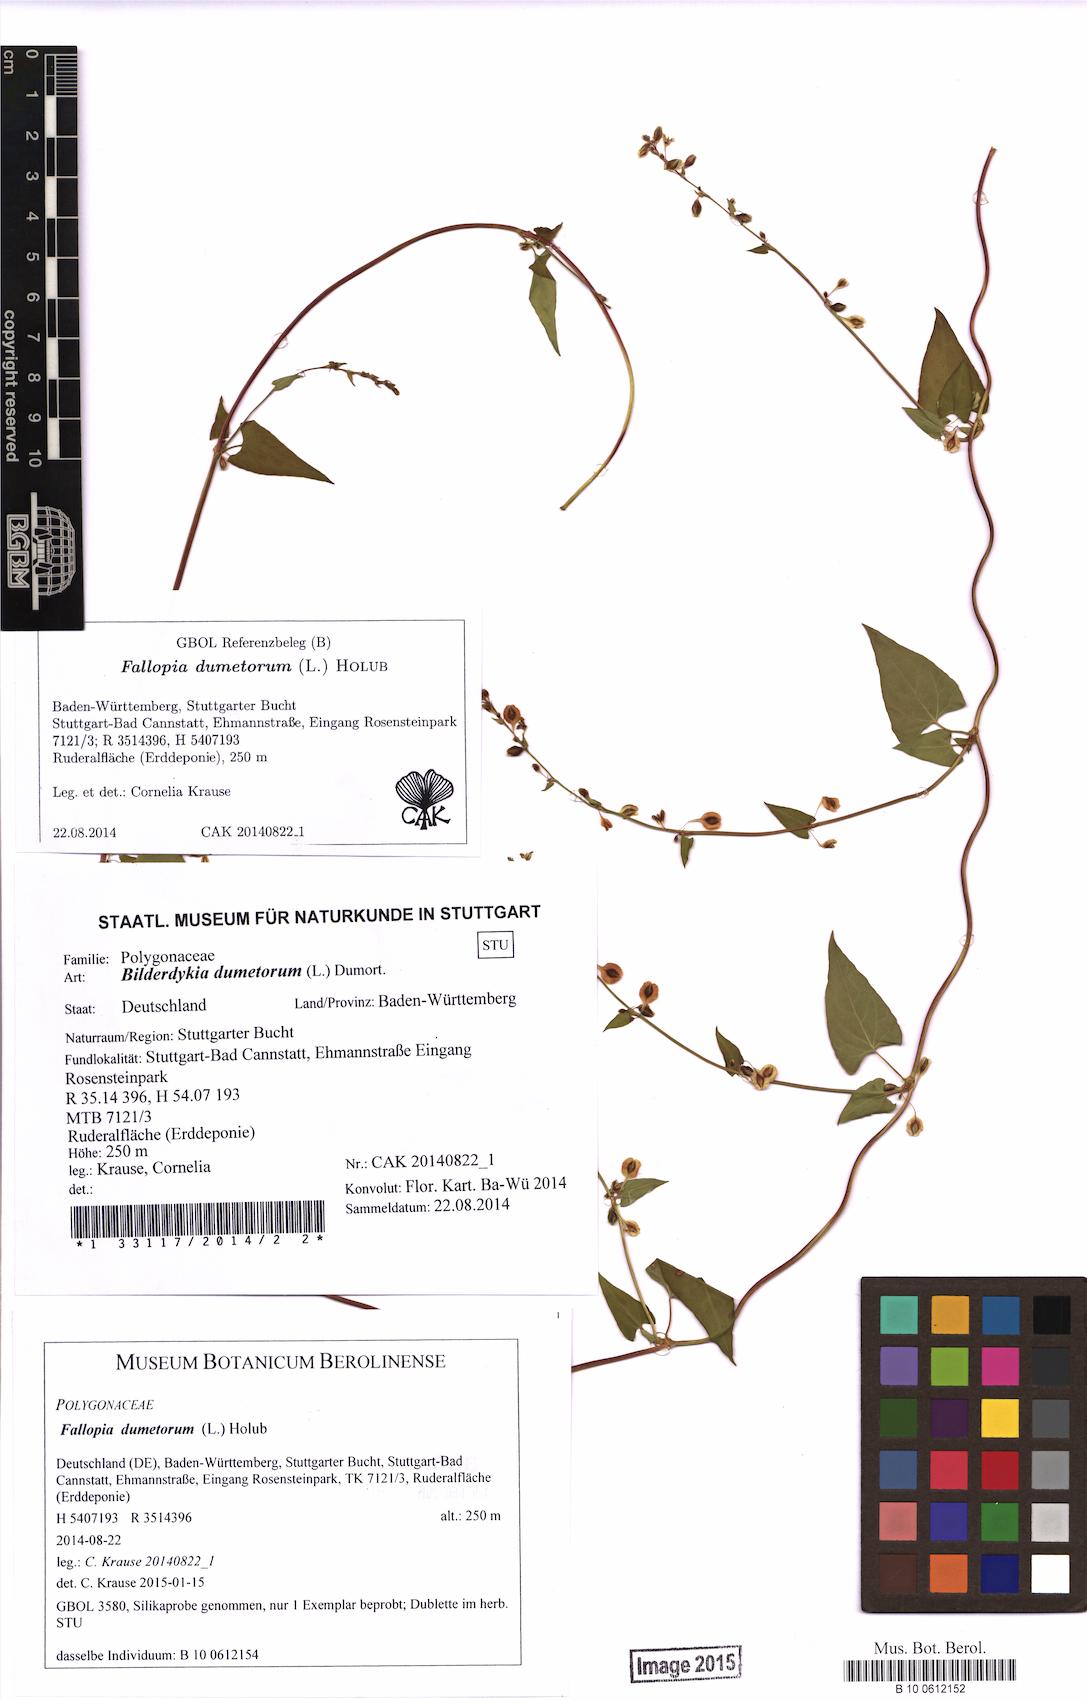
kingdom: Plantae
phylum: Tracheophyta
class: Magnoliopsida
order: Caryophyllales
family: Polygonaceae
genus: Fallopia
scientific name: Fallopia dumetorum
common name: Copse-bindweed
